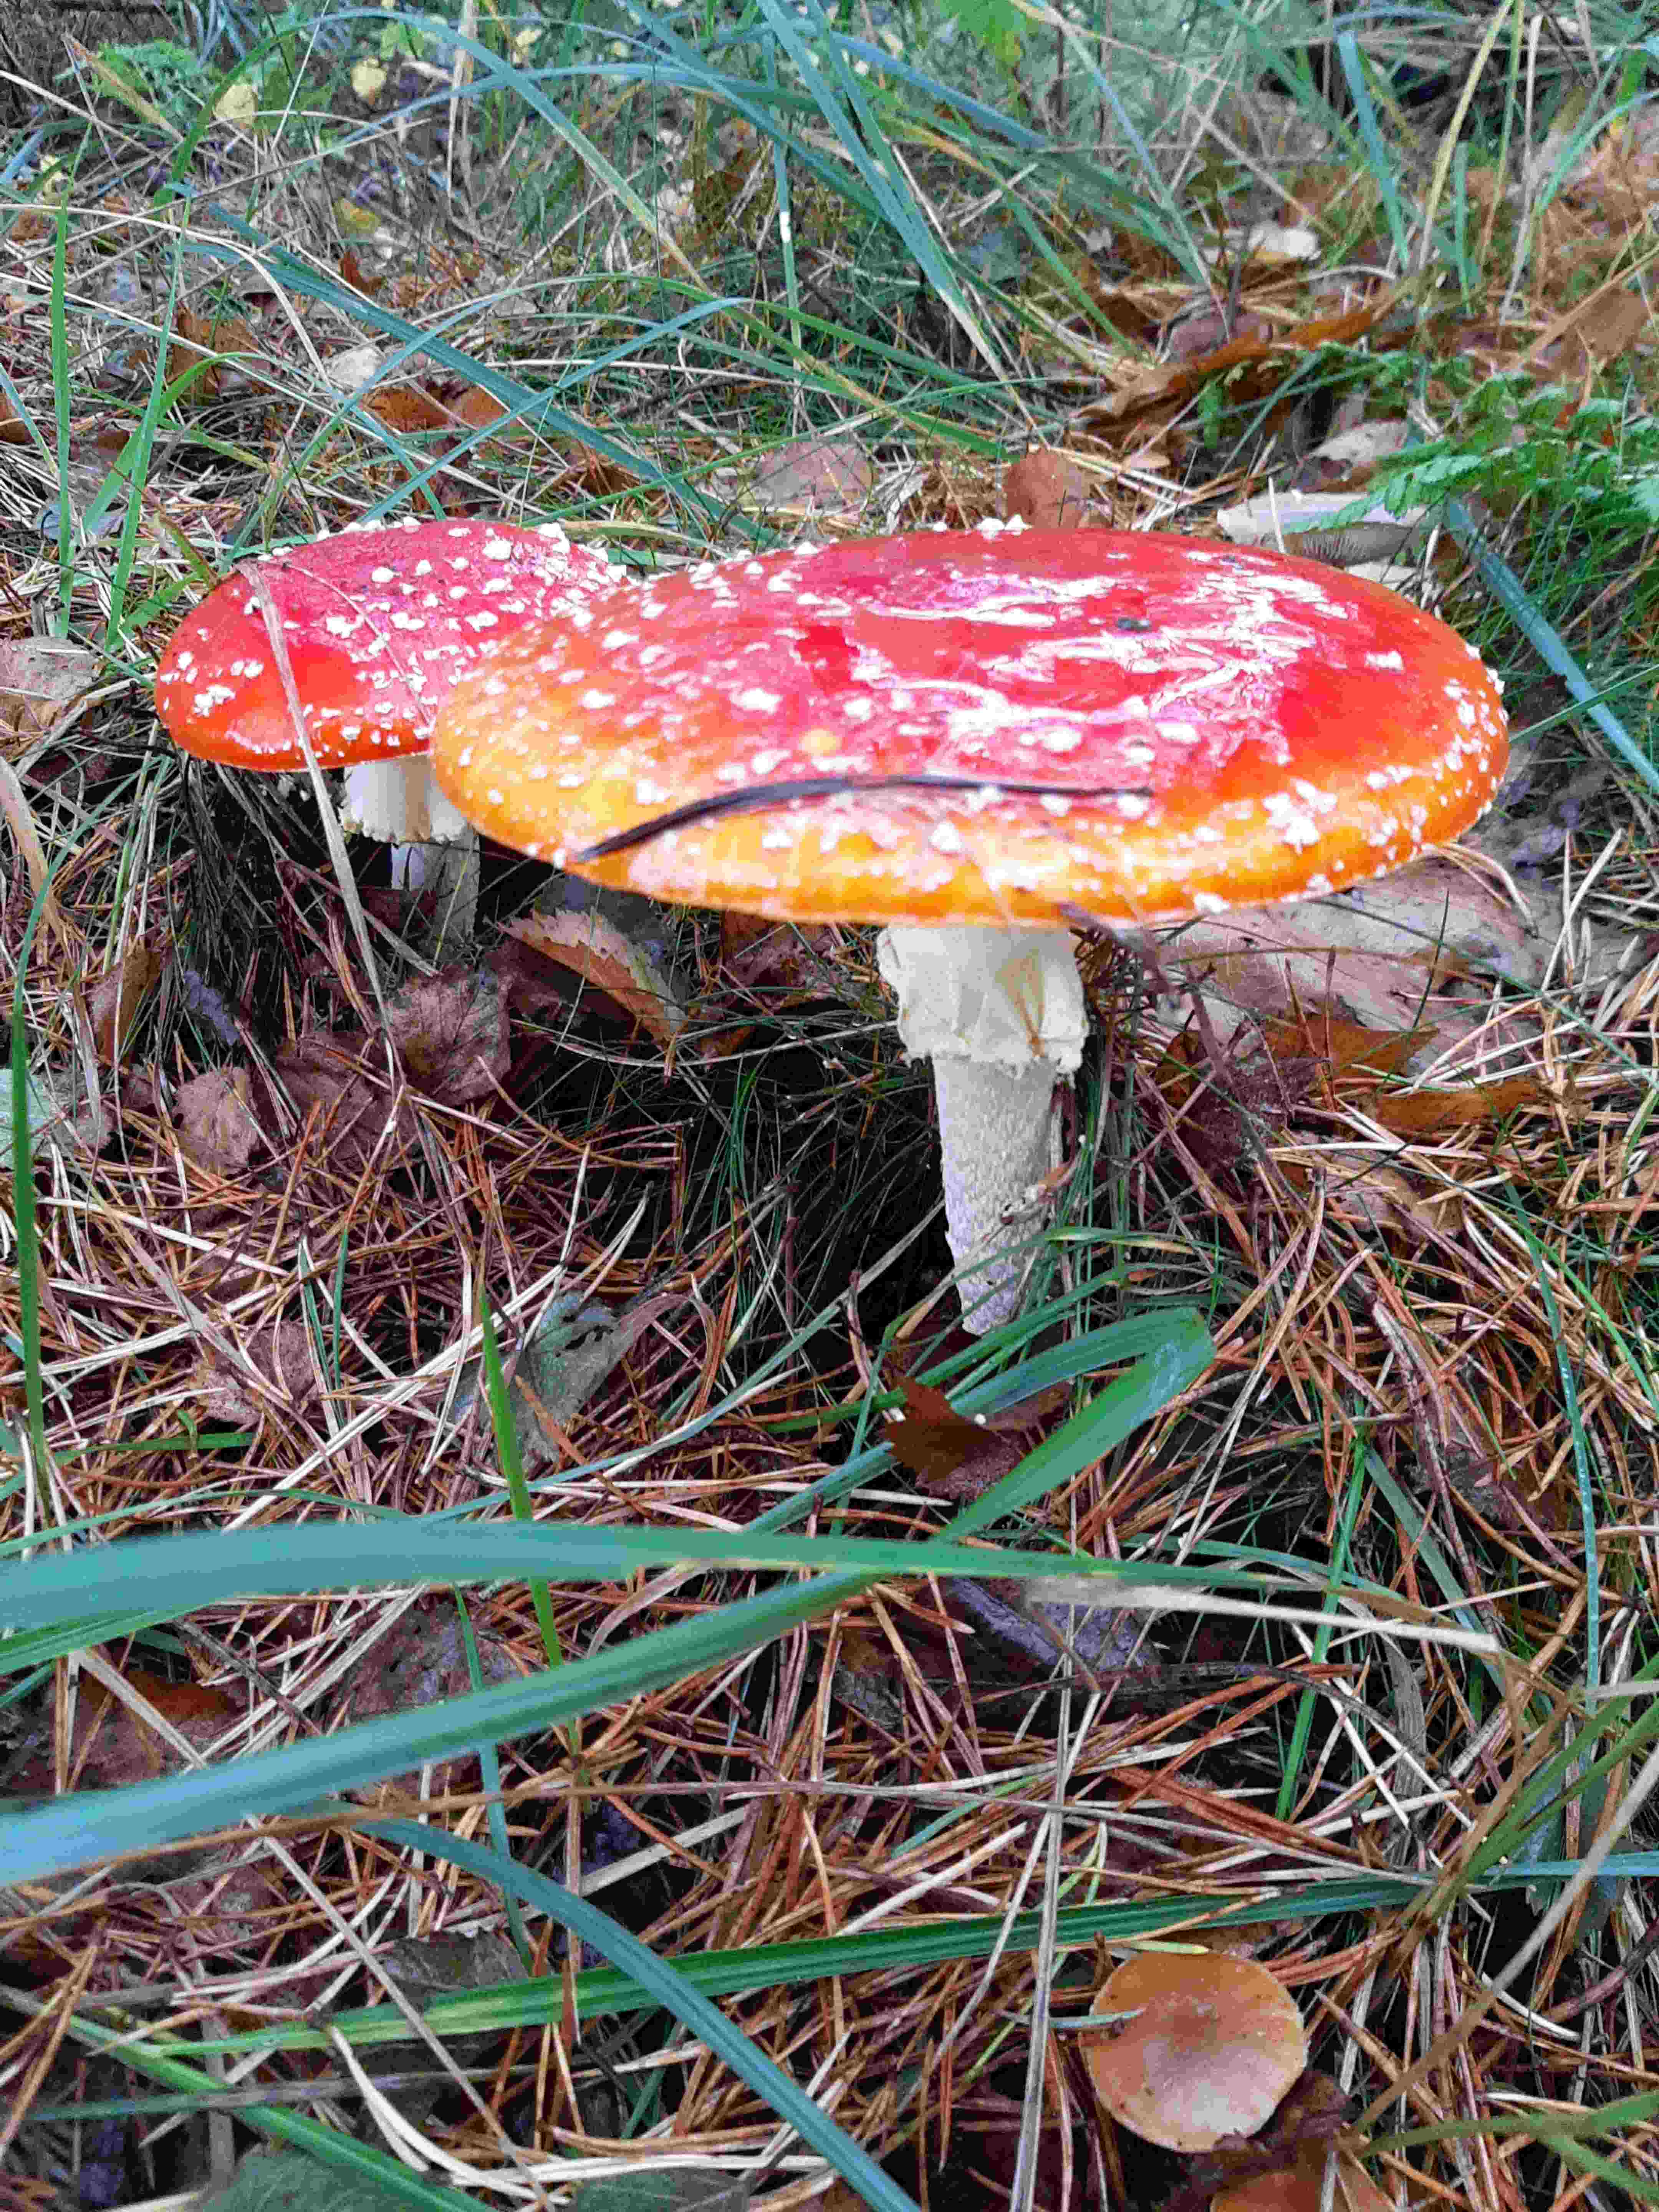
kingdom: Fungi
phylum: Basidiomycota
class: Agaricomycetes
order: Agaricales
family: Amanitaceae
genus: Amanita
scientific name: Amanita muscaria
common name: rød fluesvamp
